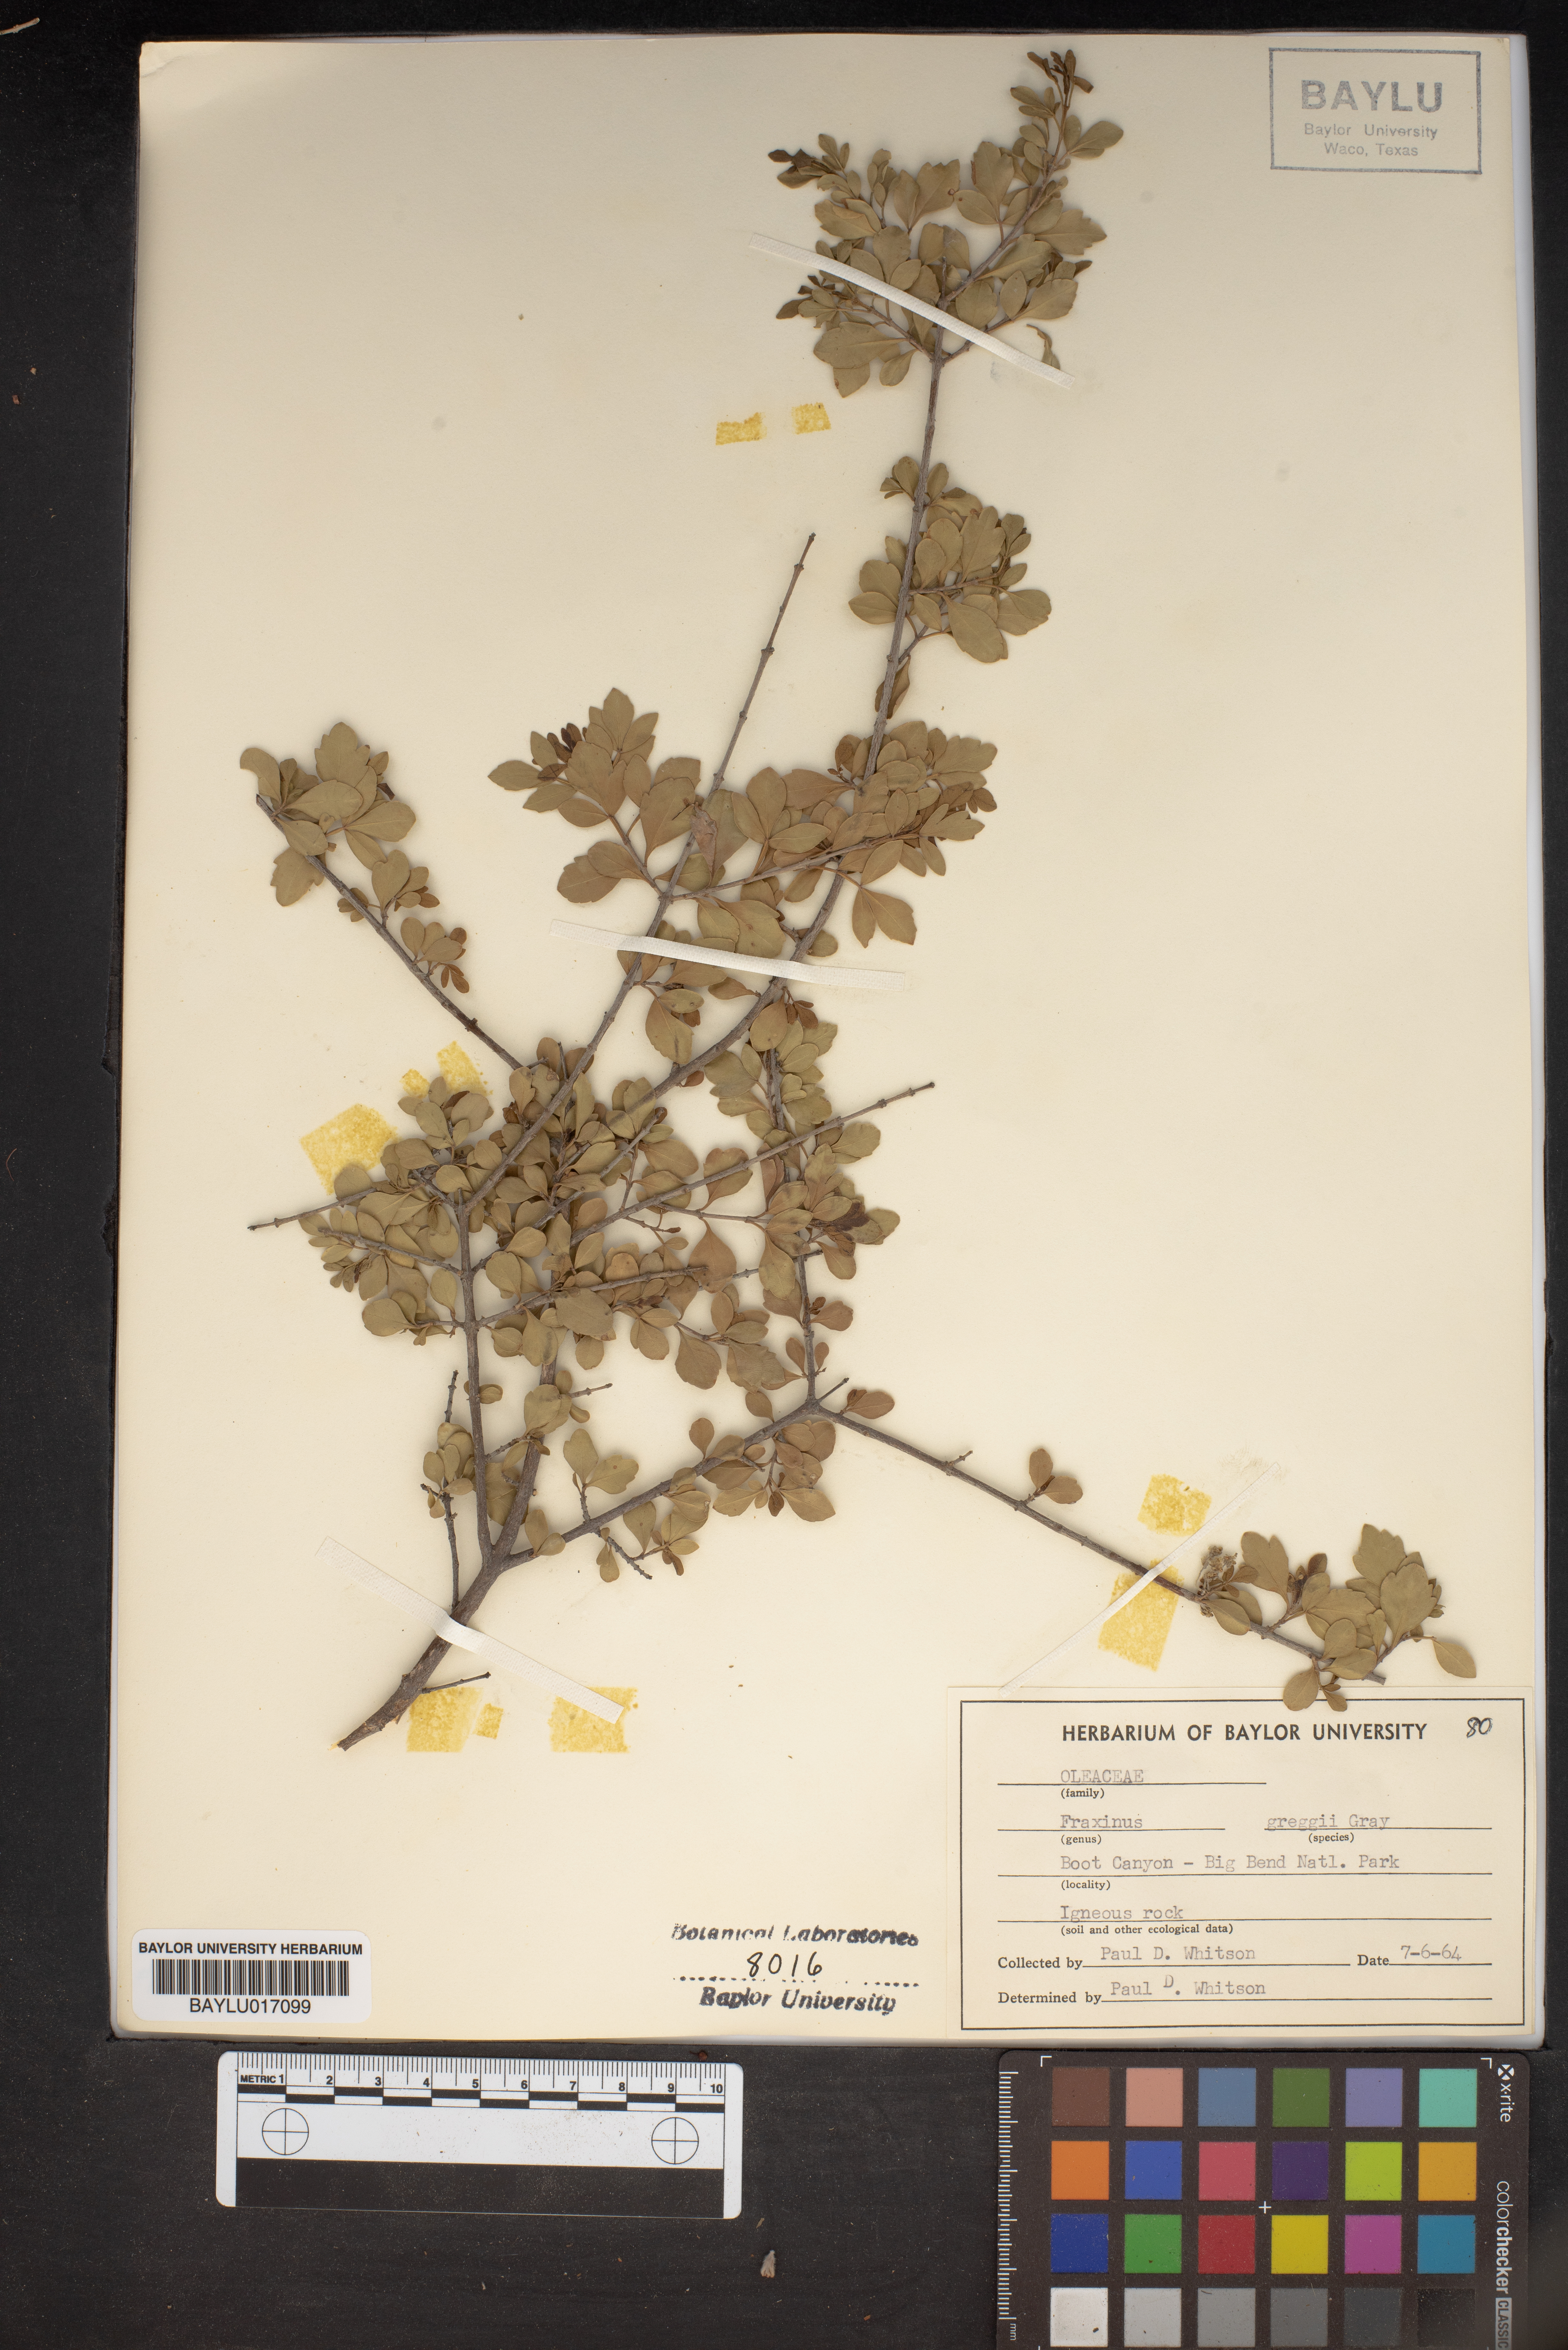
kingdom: Plantae
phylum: Tracheophyta
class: Magnoliopsida
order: Lamiales
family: Oleaceae
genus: Fraxinus
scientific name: Fraxinus greggii
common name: Gregg ash
